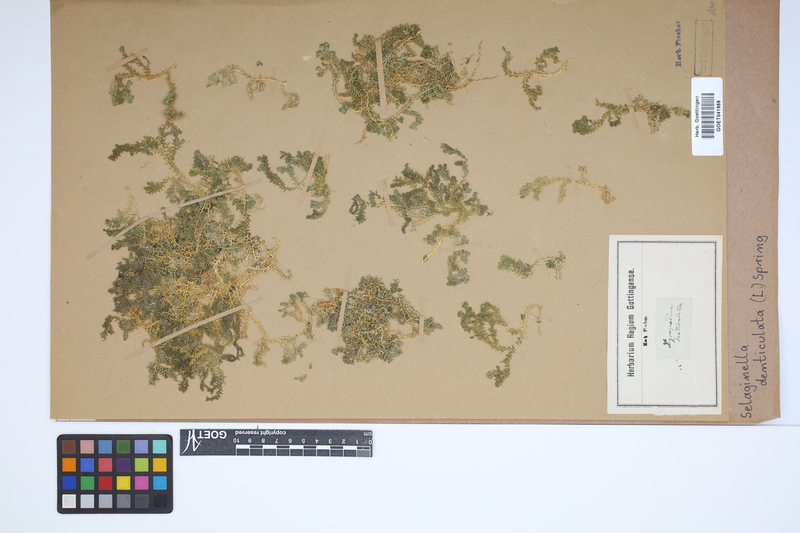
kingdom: Plantae
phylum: Tracheophyta
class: Lycopodiopsida
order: Selaginellales
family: Selaginellaceae
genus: Selaginella
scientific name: Selaginella denticulata
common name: Toothed-leaved clubmoss
